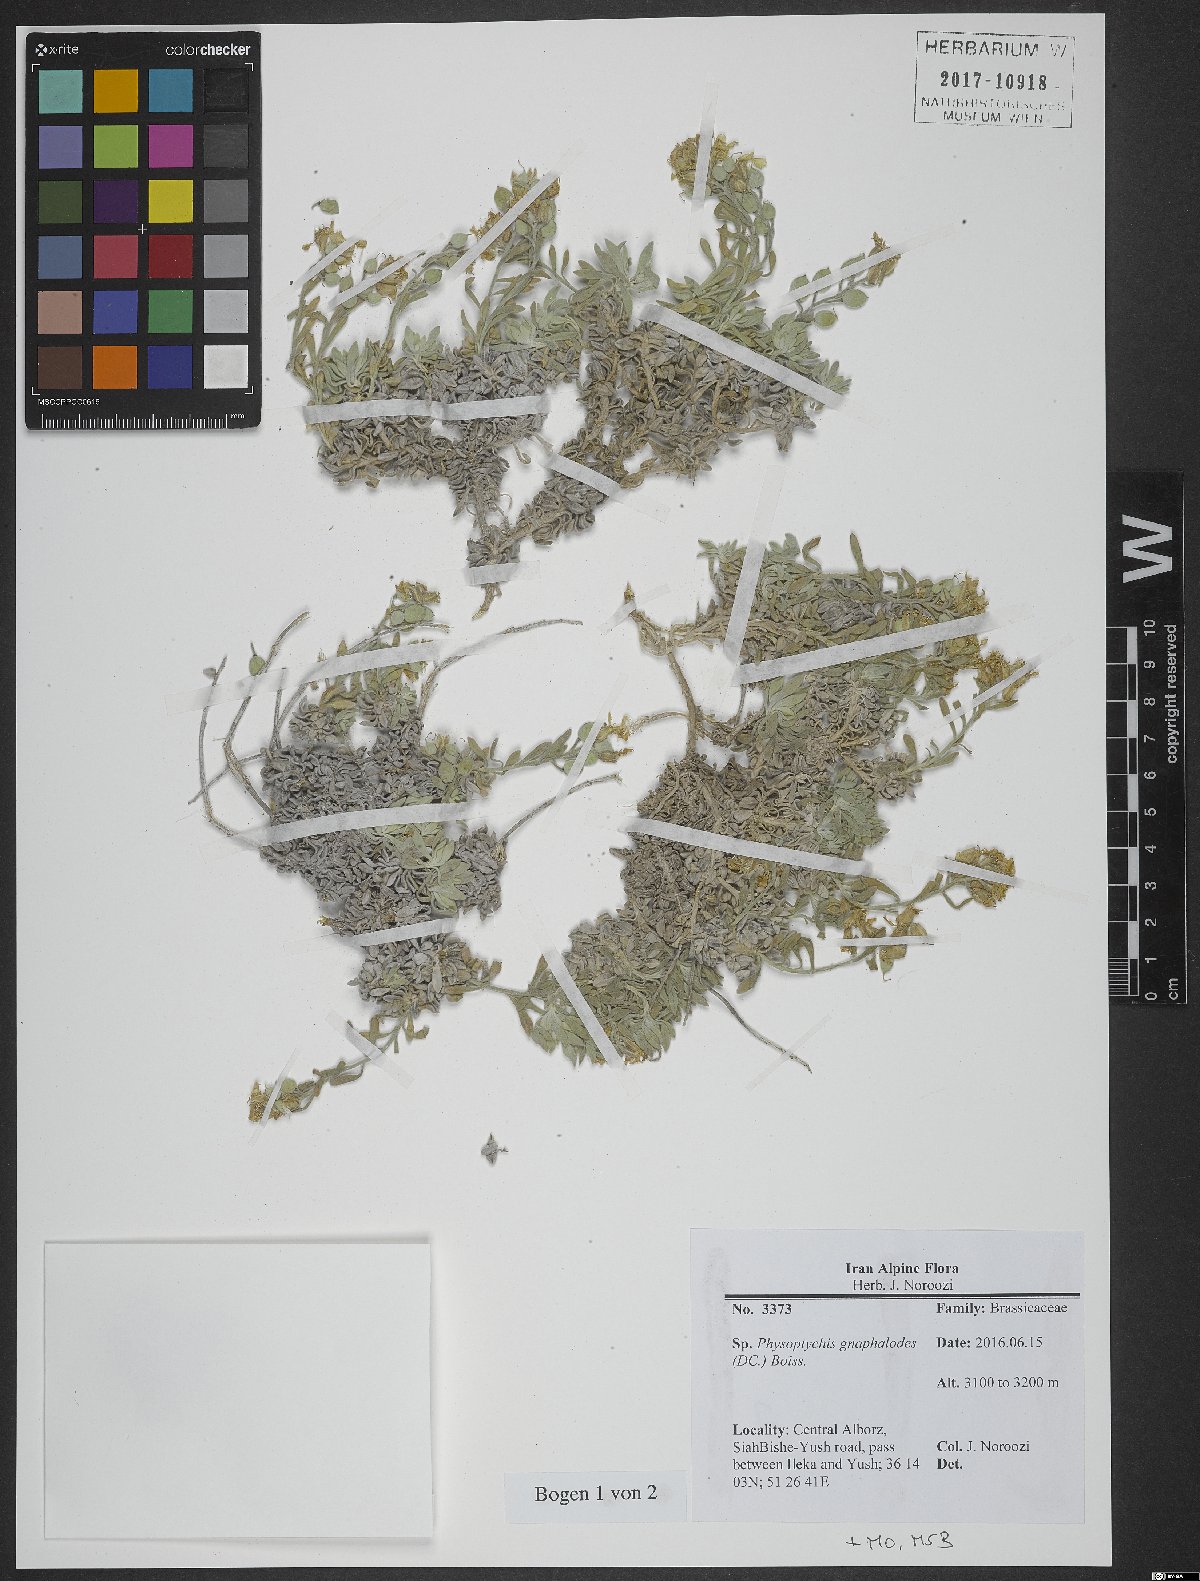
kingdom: Plantae
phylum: Tracheophyta
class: Magnoliopsida
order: Brassicales
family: Brassicaceae
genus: Physoptychis
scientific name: Physoptychis caspica
